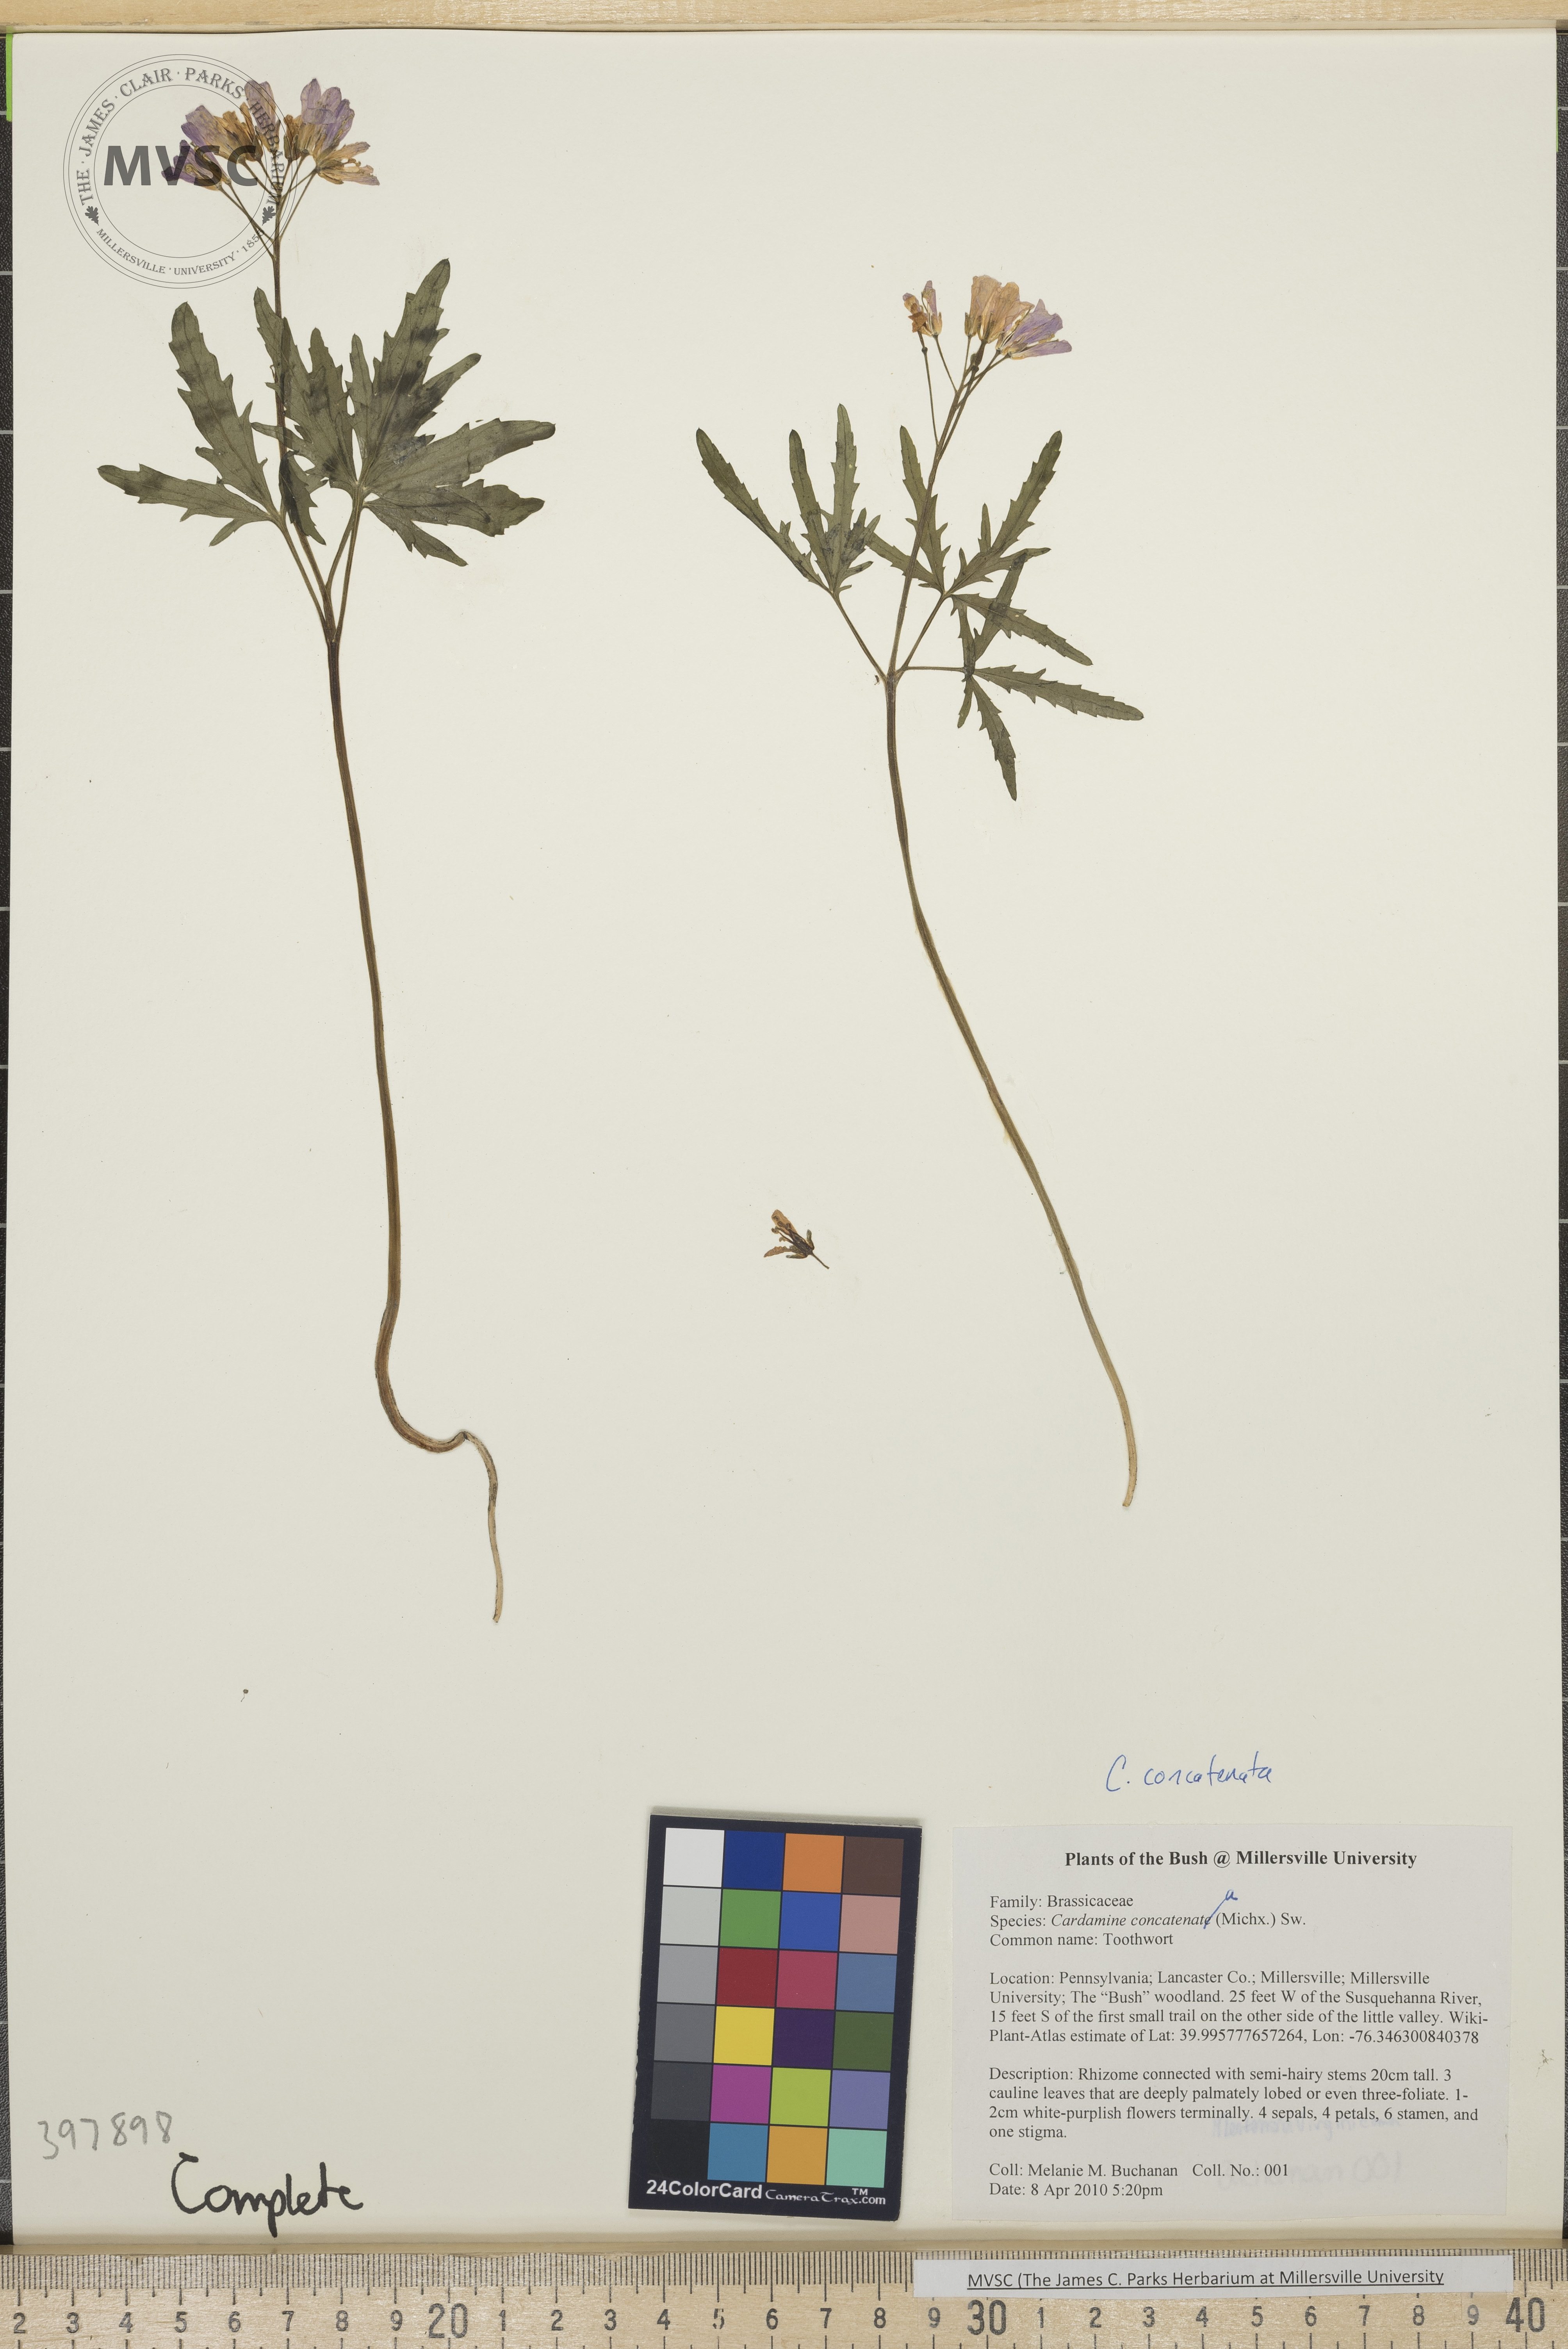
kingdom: Plantae
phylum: Tracheophyta
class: Magnoliopsida
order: Brassicales
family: Brassicaceae
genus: Cardamine
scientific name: Cardamine concatenata
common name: Toothwort
